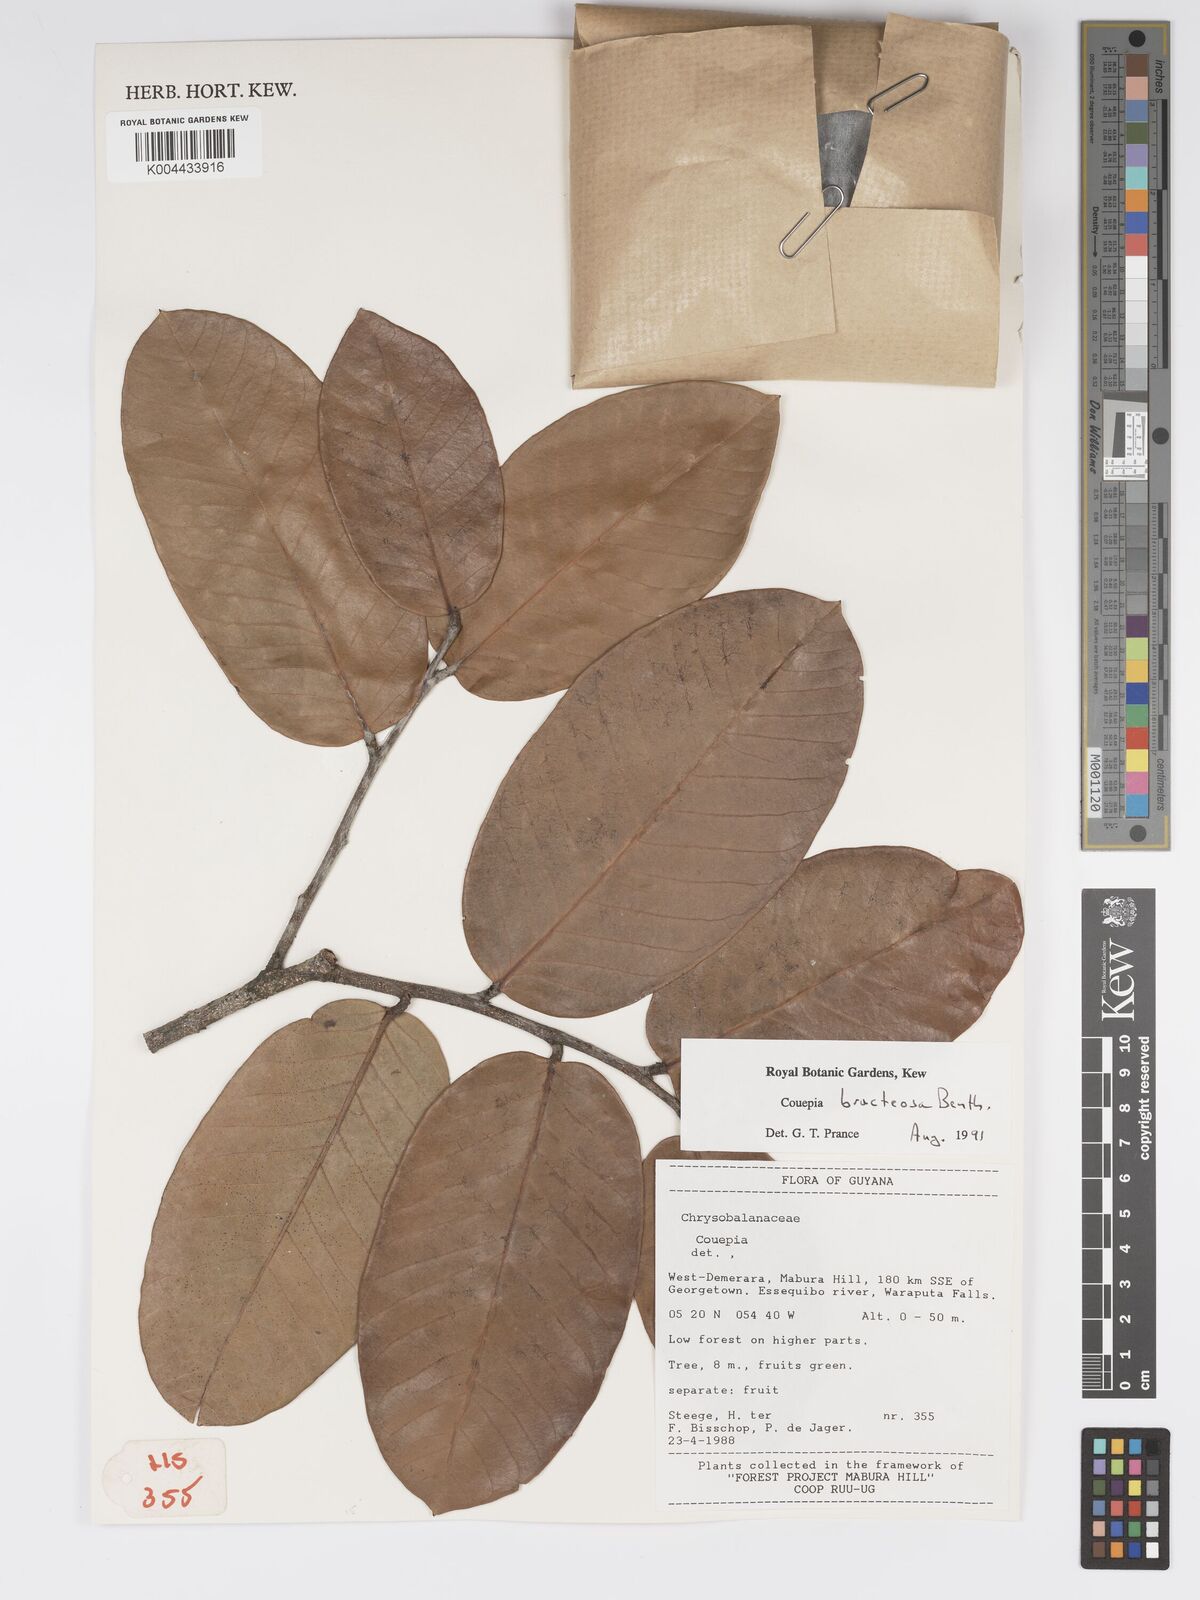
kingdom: Plantae
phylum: Tracheophyta
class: Magnoliopsida
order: Malpighiales
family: Chrysobalanaceae
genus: Couepia
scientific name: Couepia bracteosa
